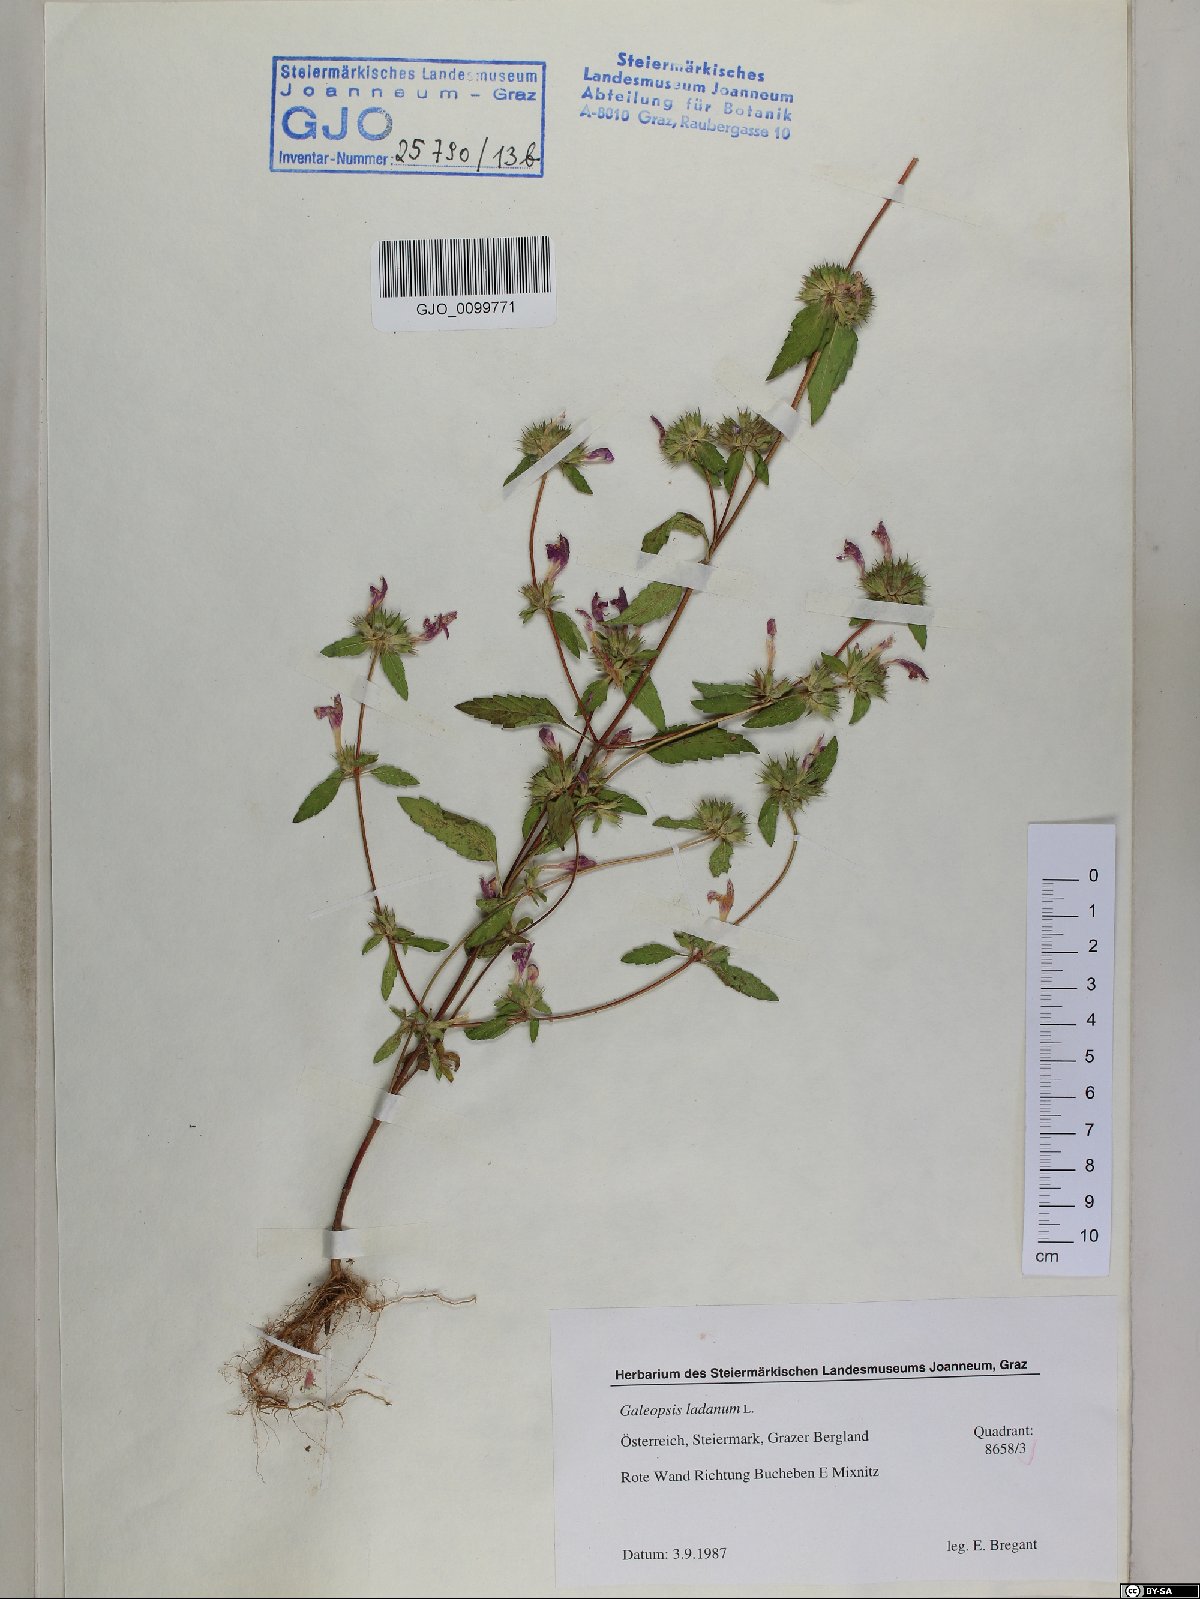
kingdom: Plantae
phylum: Tracheophyta
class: Magnoliopsida
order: Lamiales
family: Lamiaceae
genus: Galeopsis
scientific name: Galeopsis ladanum
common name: Broad-leaved hemp-nettle
